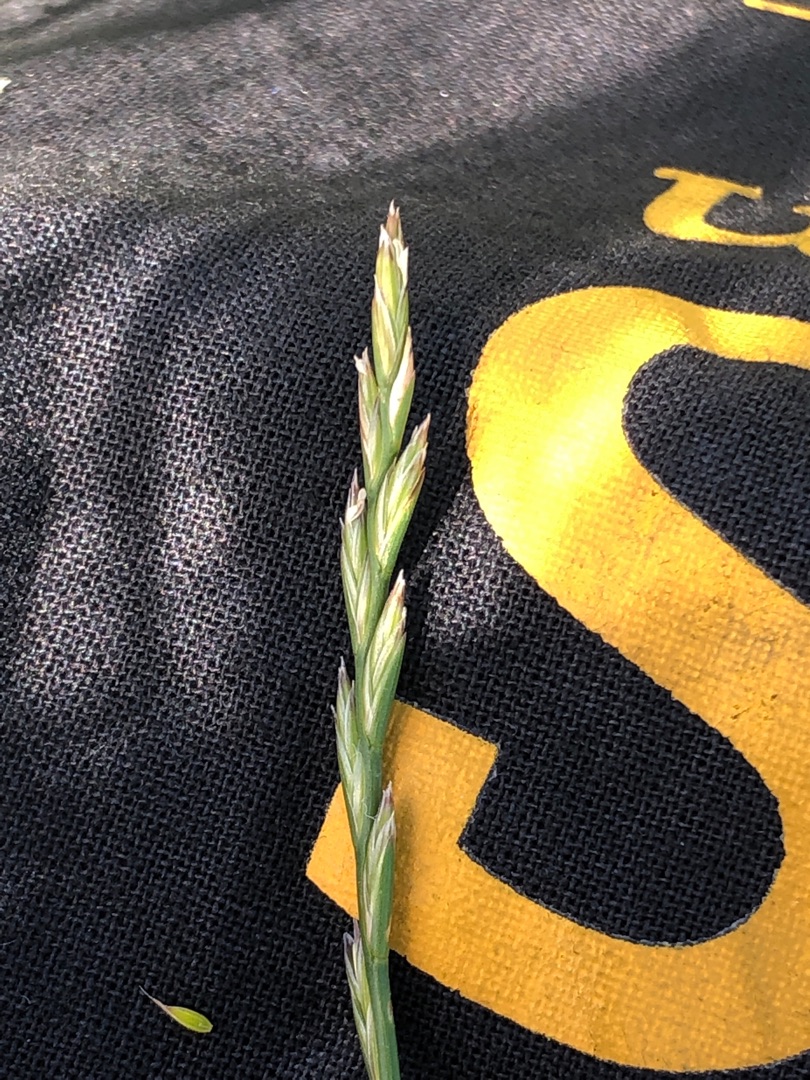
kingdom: Plantae
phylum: Tracheophyta
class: Liliopsida
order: Poales
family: Poaceae
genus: Lolium
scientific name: Lolium perenne
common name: Almindelig rajgræs
